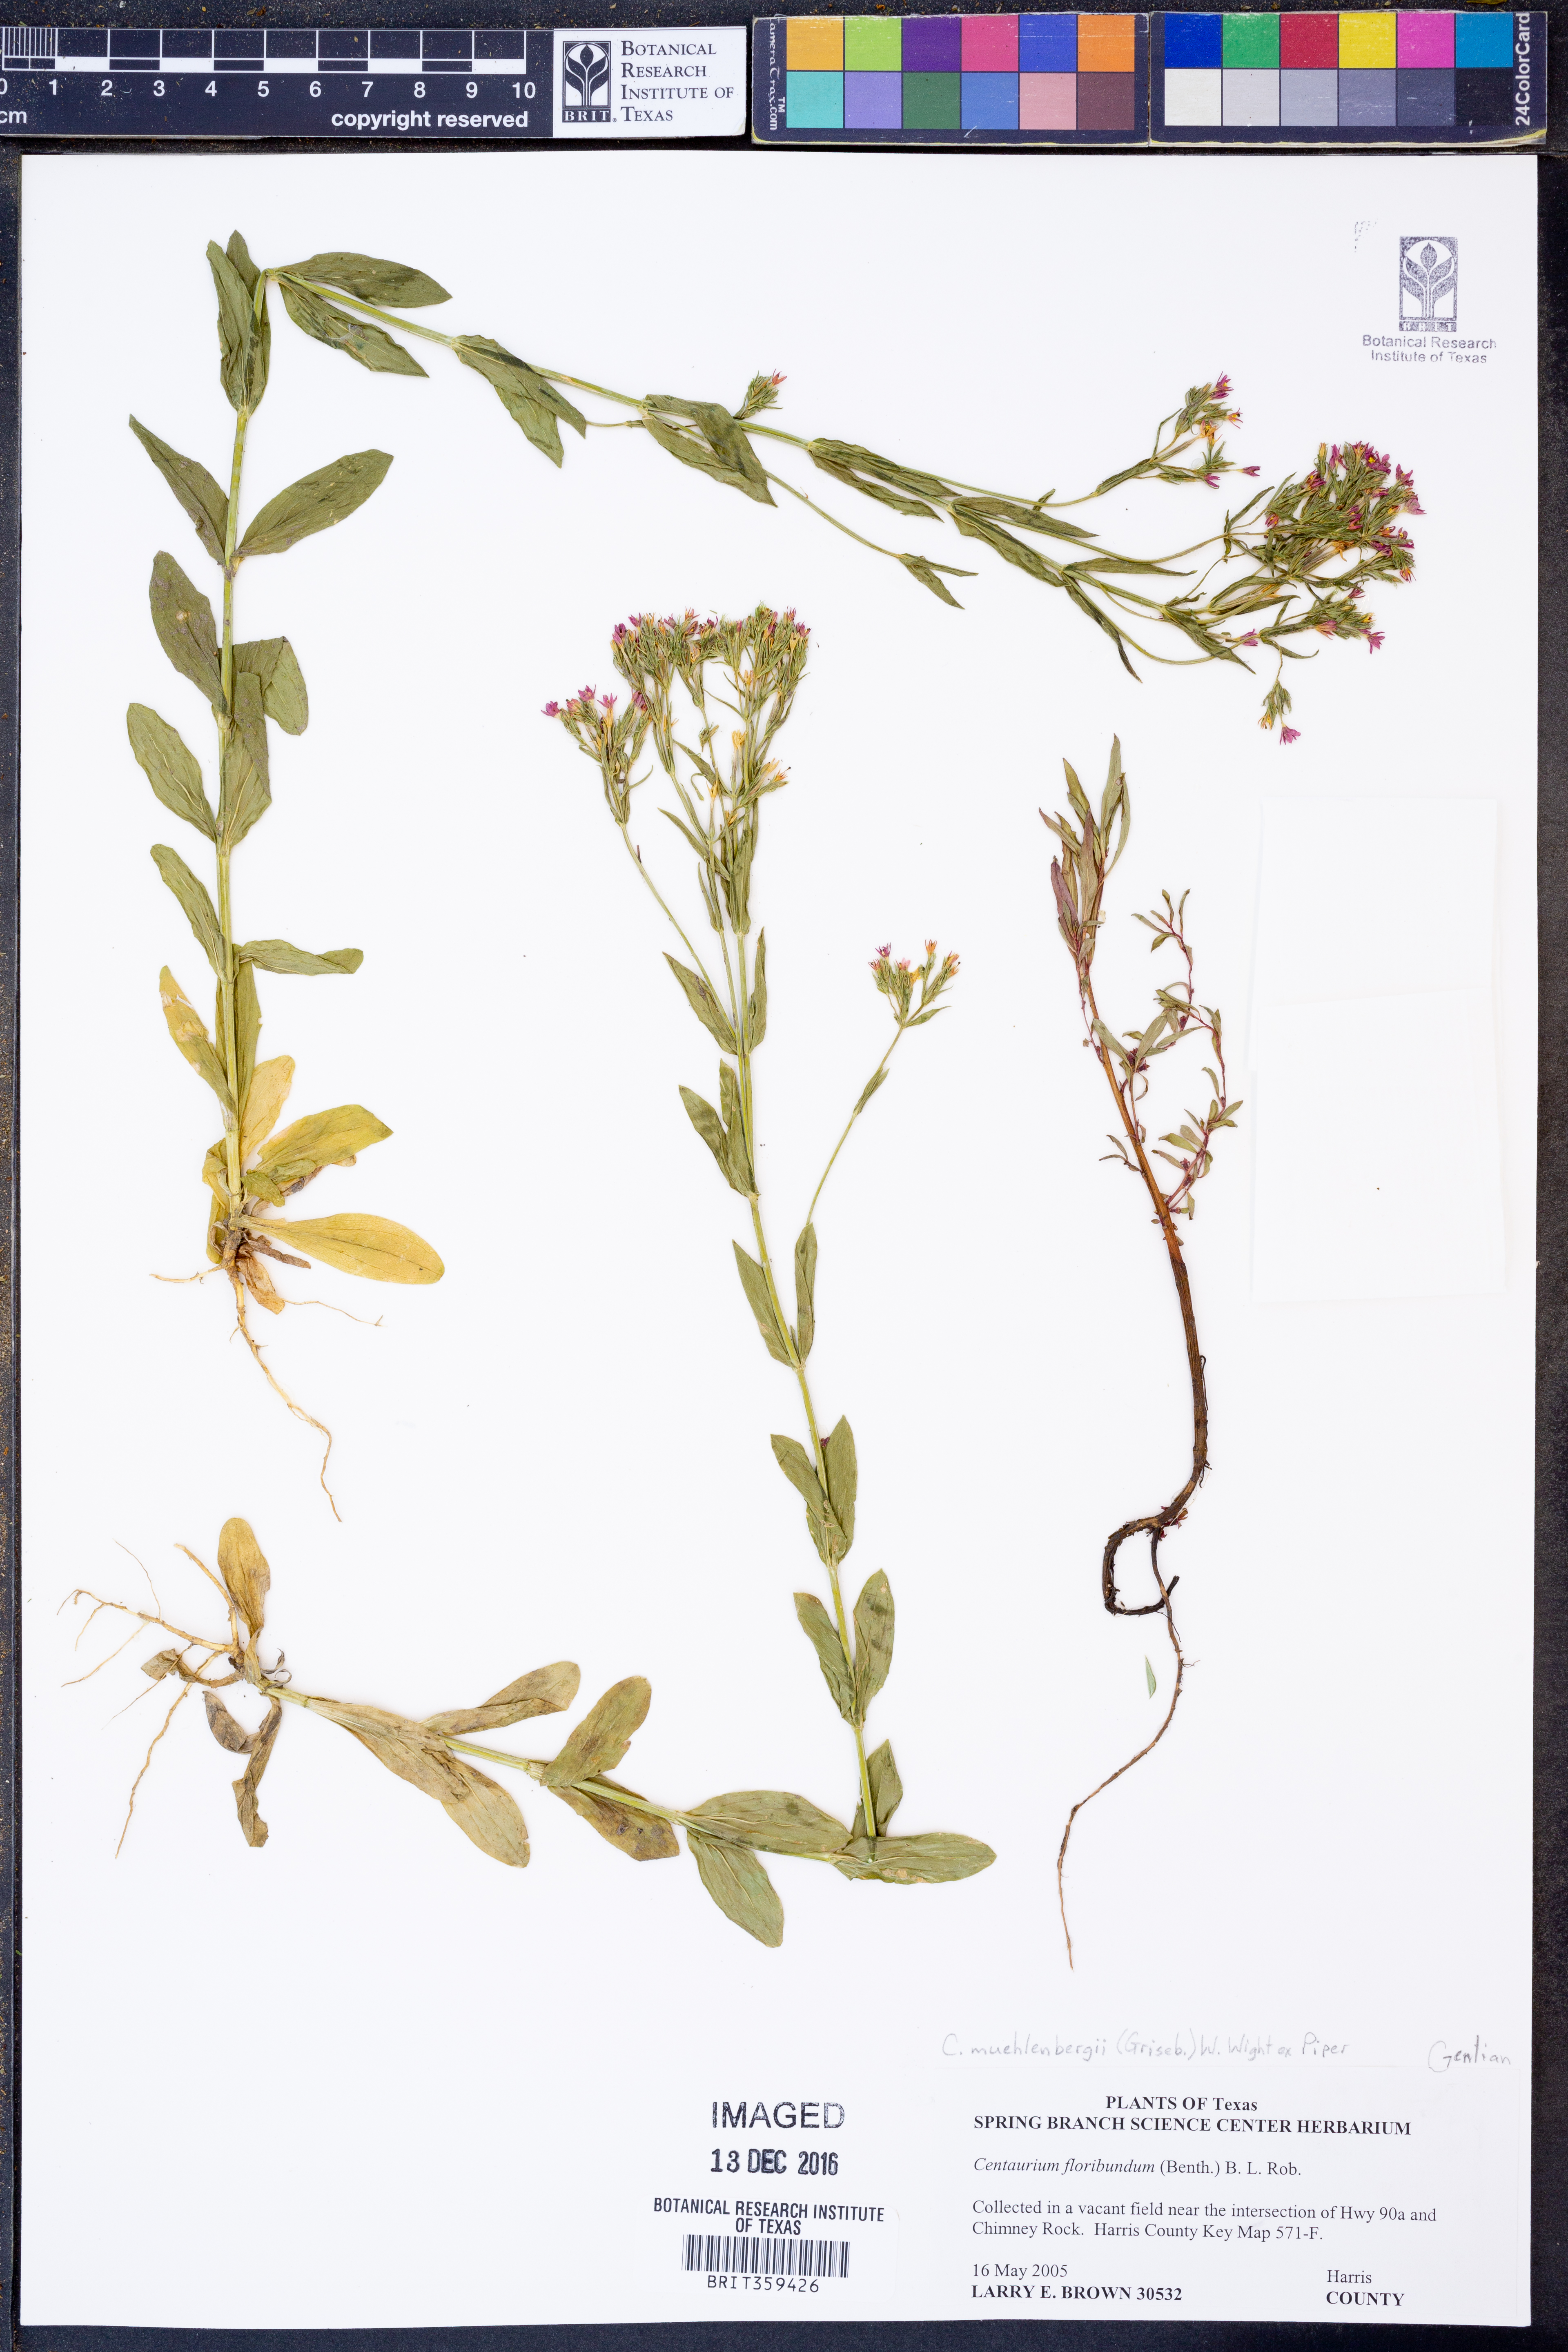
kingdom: Plantae
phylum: Tracheophyta
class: Magnoliopsida
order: Gentianales
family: Gentianaceae
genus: Zeltnera
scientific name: Zeltnera muhlenbergii
